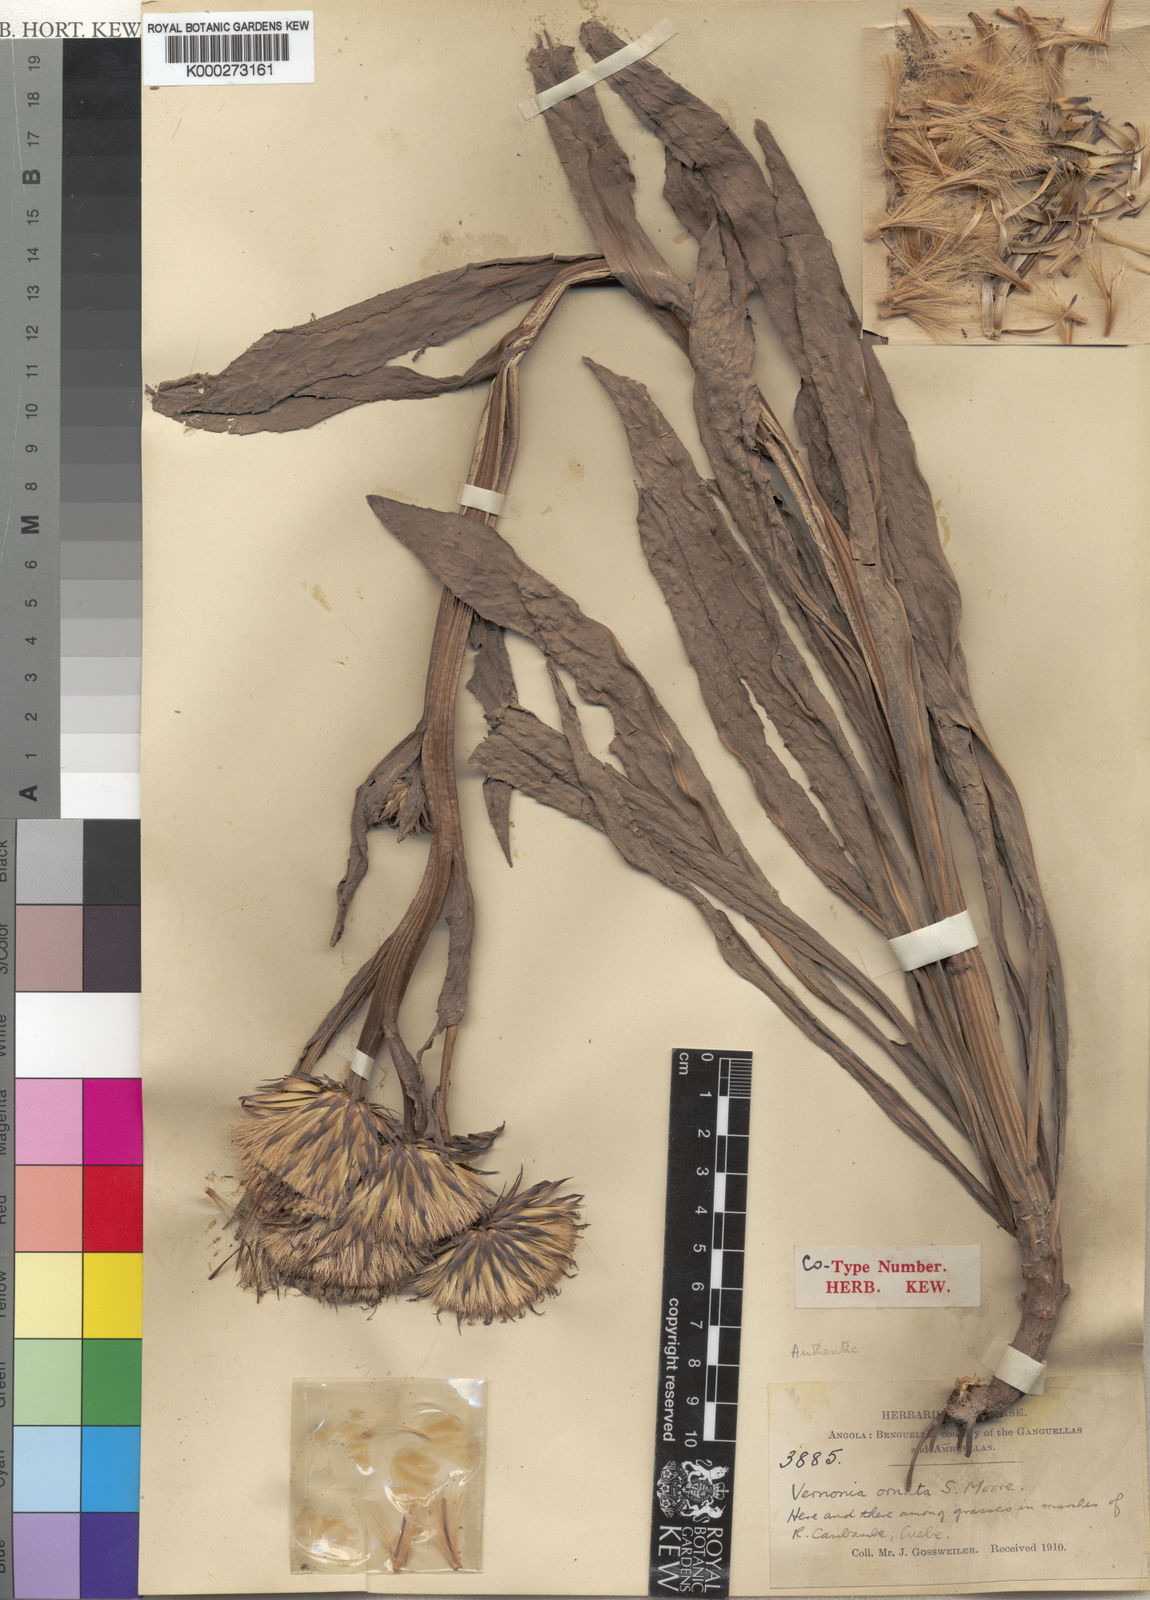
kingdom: Plantae
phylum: Tracheophyta
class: Magnoliopsida
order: Asterales
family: Asteraceae
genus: Vernonia
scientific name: Vernonia ornata
